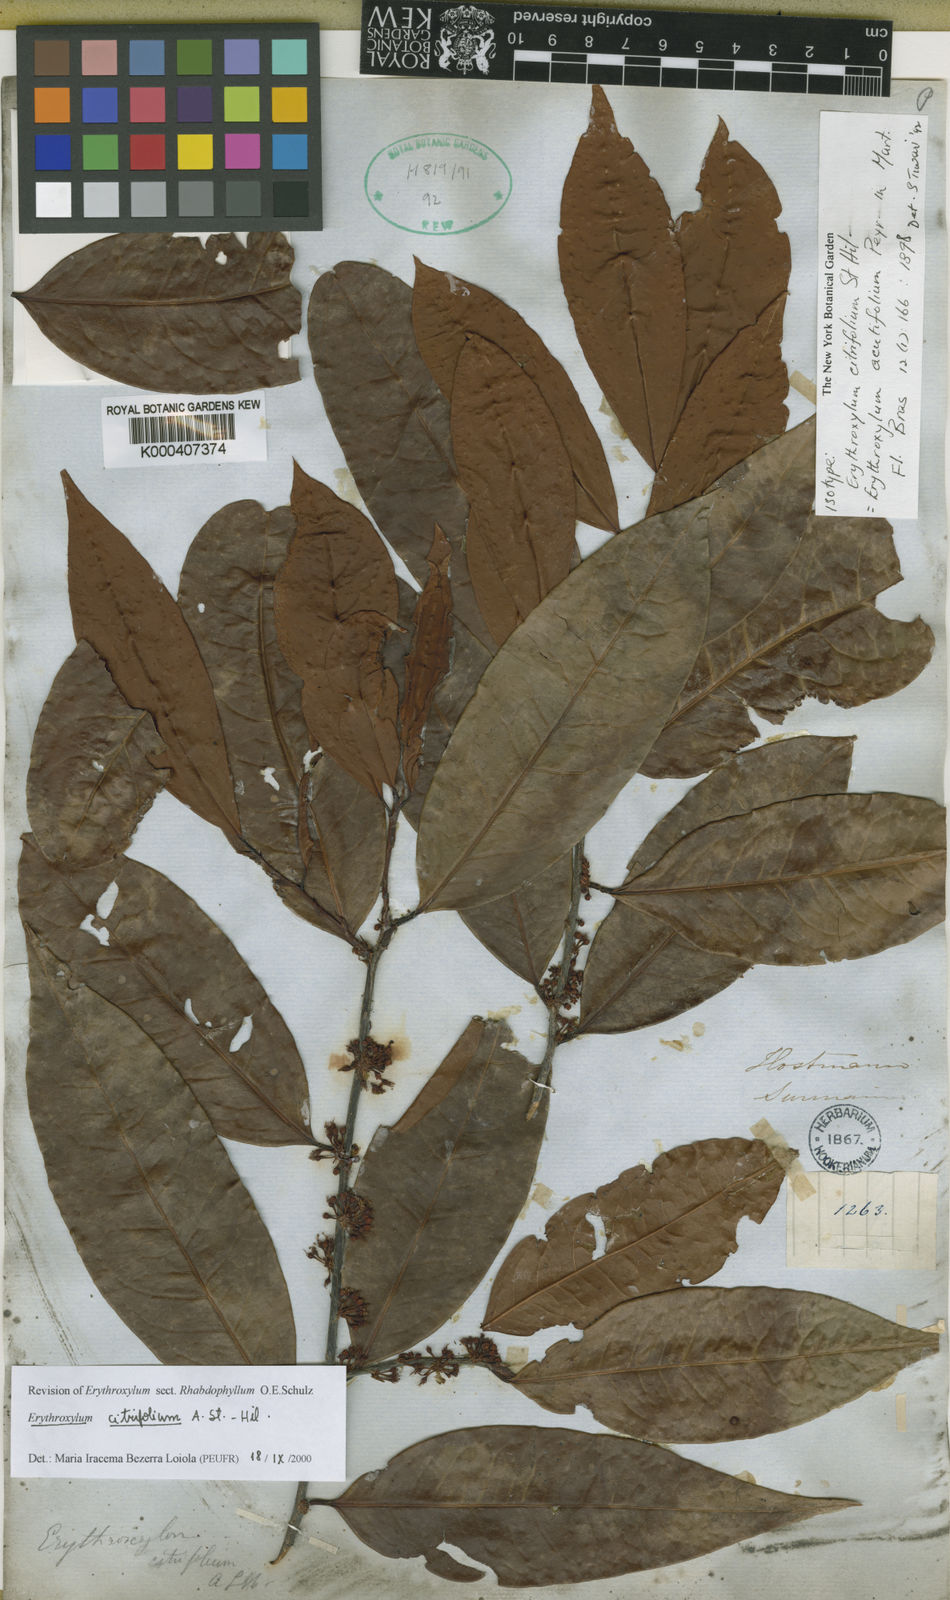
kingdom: Plantae
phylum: Tracheophyta
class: Magnoliopsida
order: Malpighiales
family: Erythroxylaceae
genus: Erythroxylum
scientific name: Erythroxylum citrifolium
